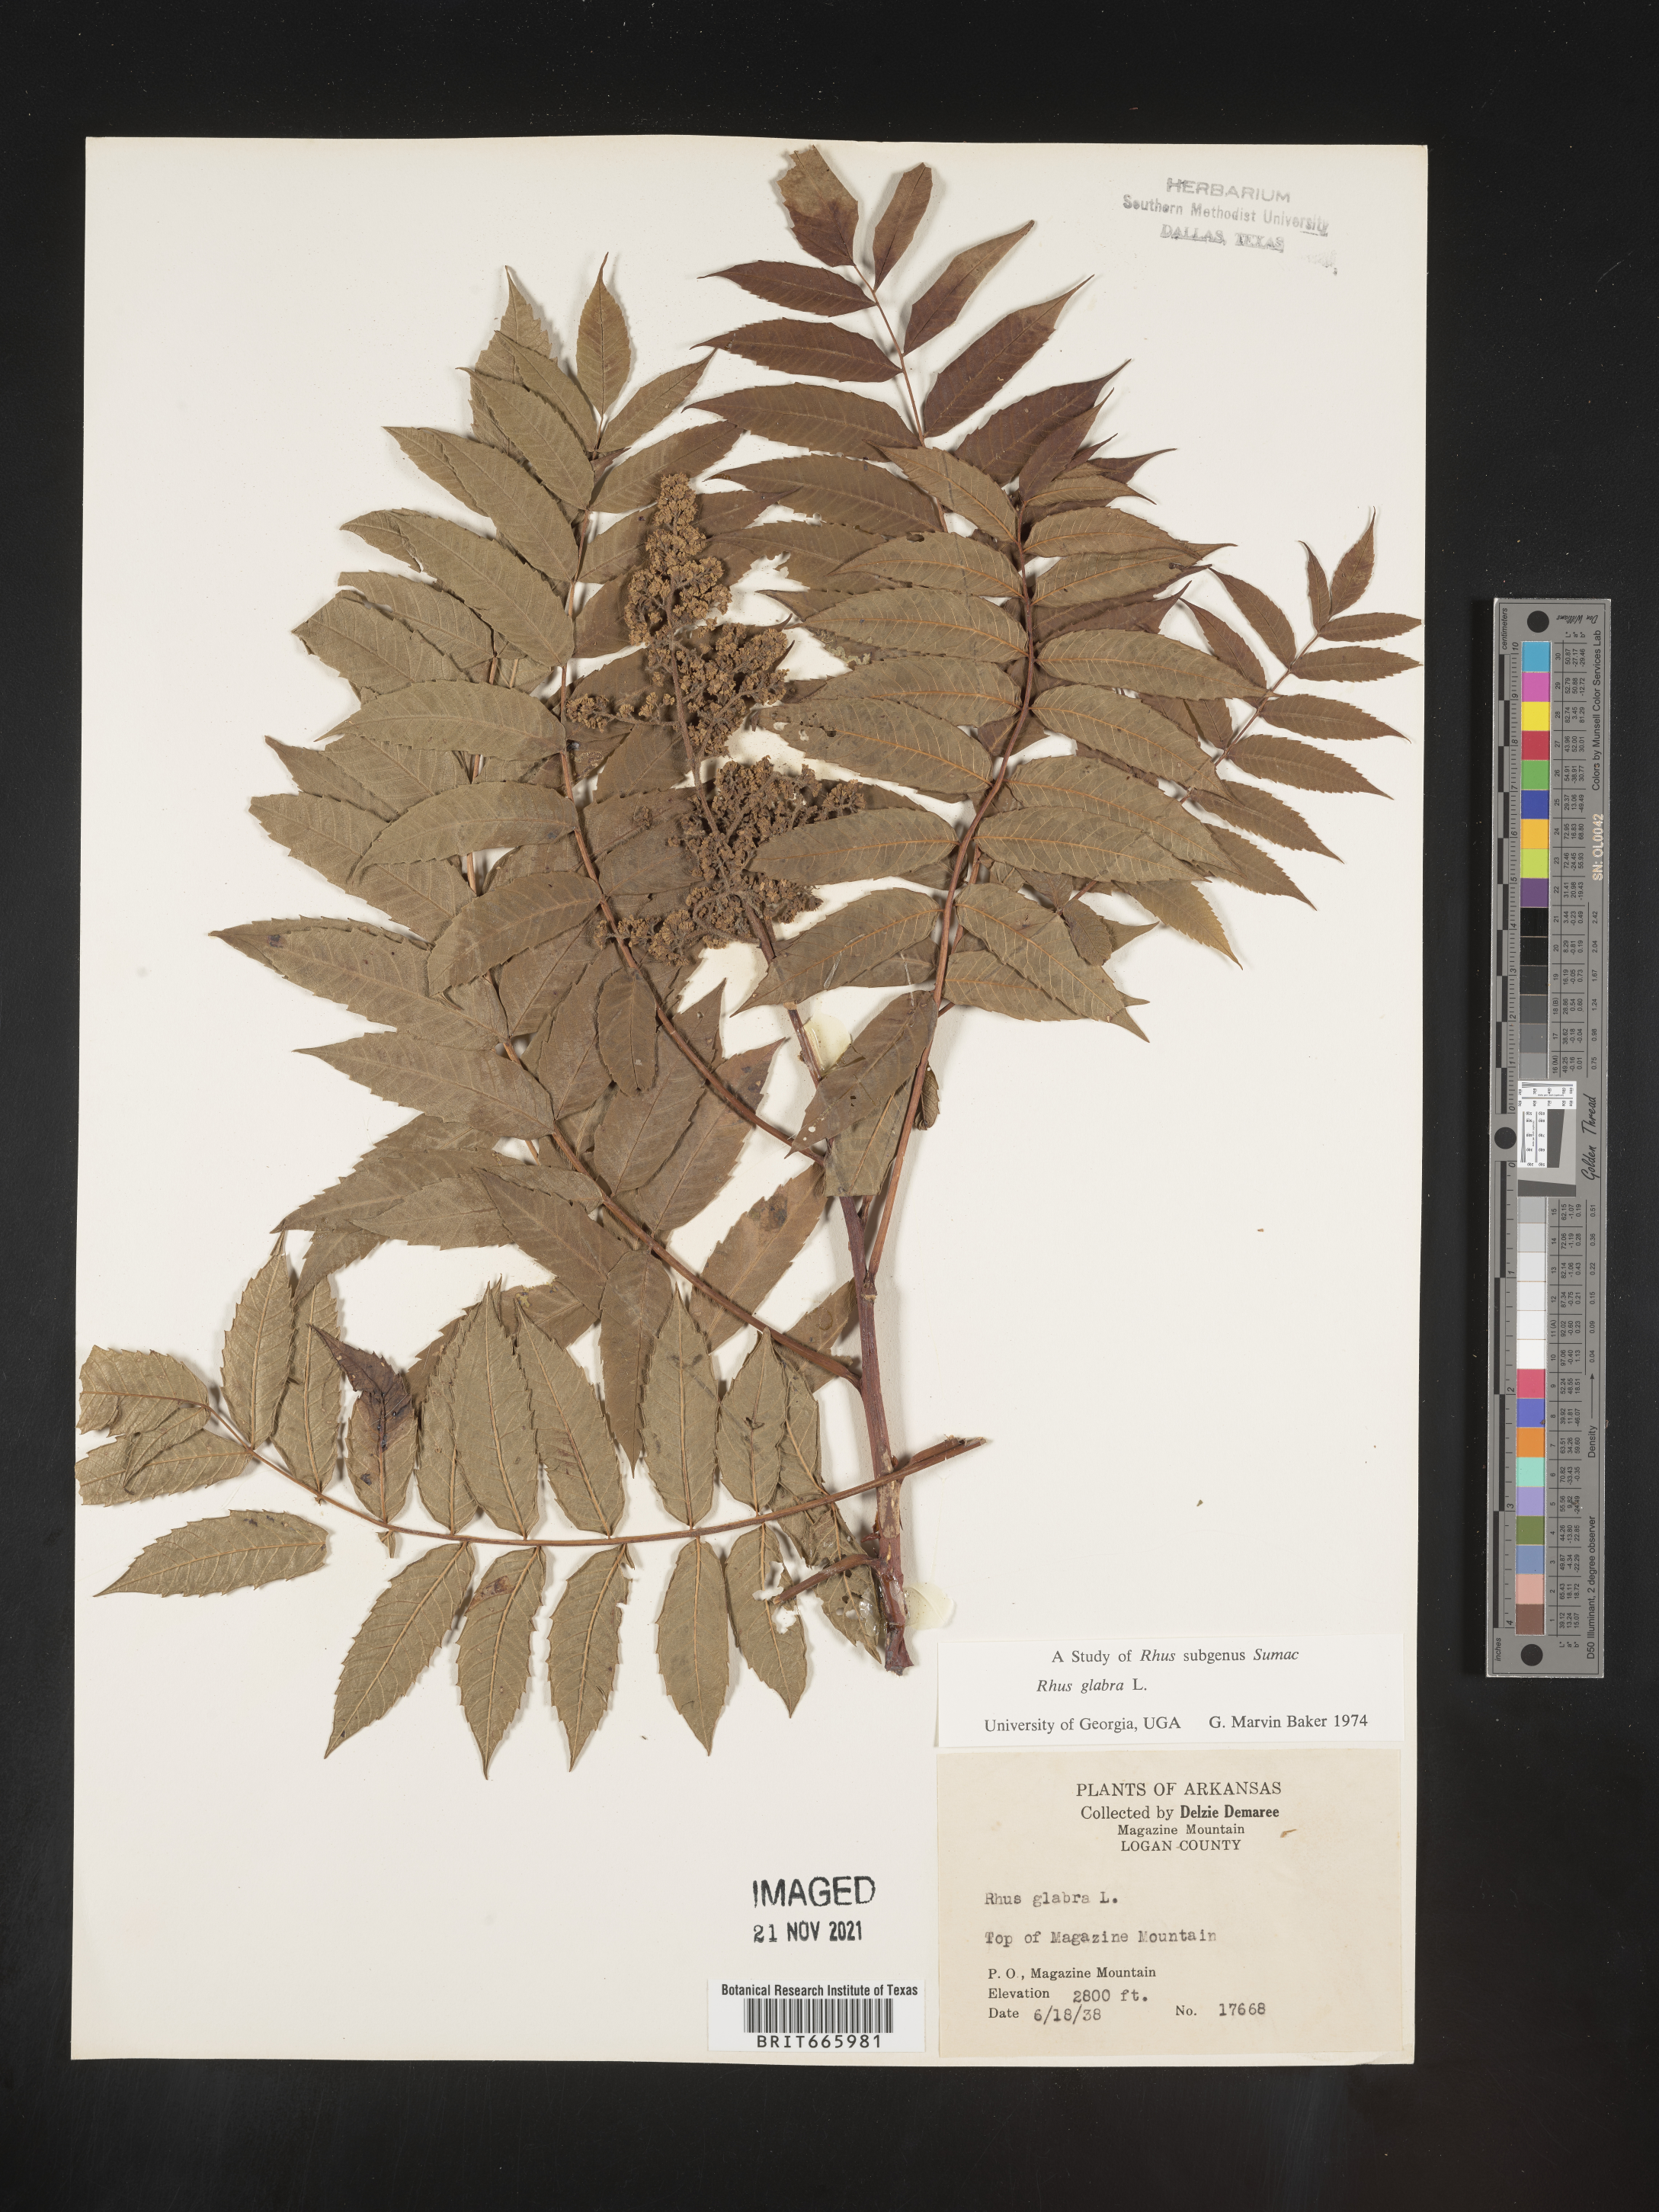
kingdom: Plantae
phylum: Tracheophyta
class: Magnoliopsida
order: Sapindales
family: Anacardiaceae
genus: Rhus
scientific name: Rhus glabra
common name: Scarlet sumac
